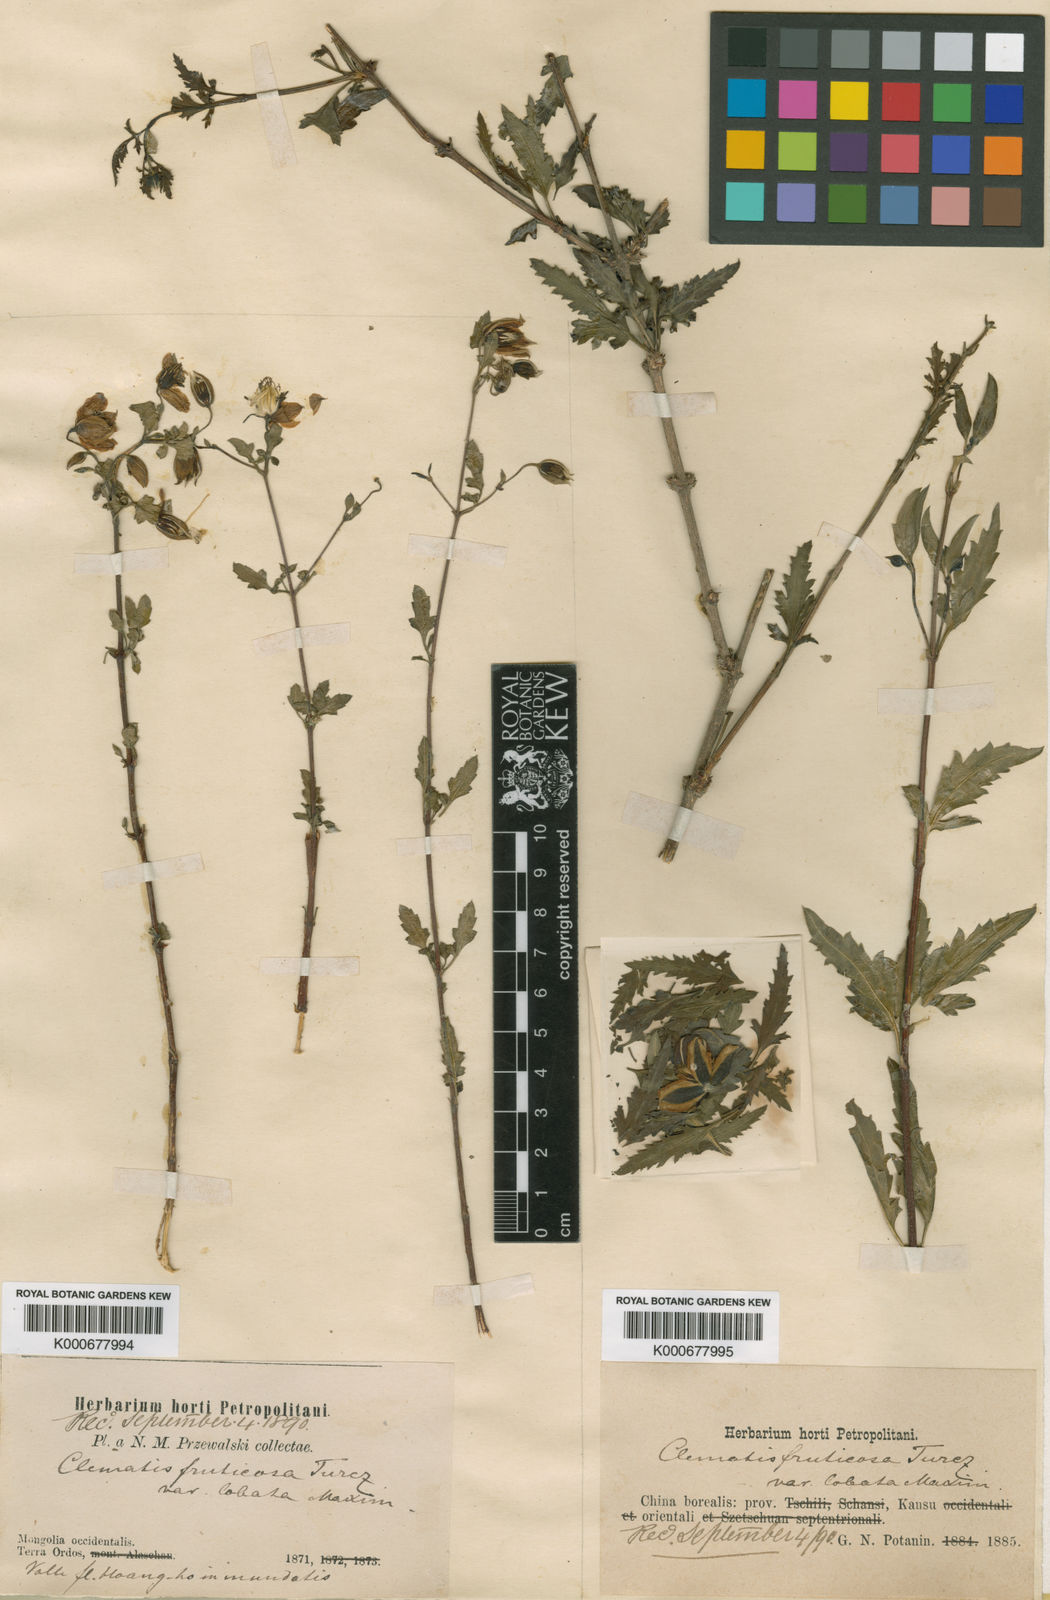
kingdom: Plantae
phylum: Tracheophyta
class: Magnoliopsida
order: Ranunculales
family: Ranunculaceae
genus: Clematis
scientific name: Clematis fruticosa
